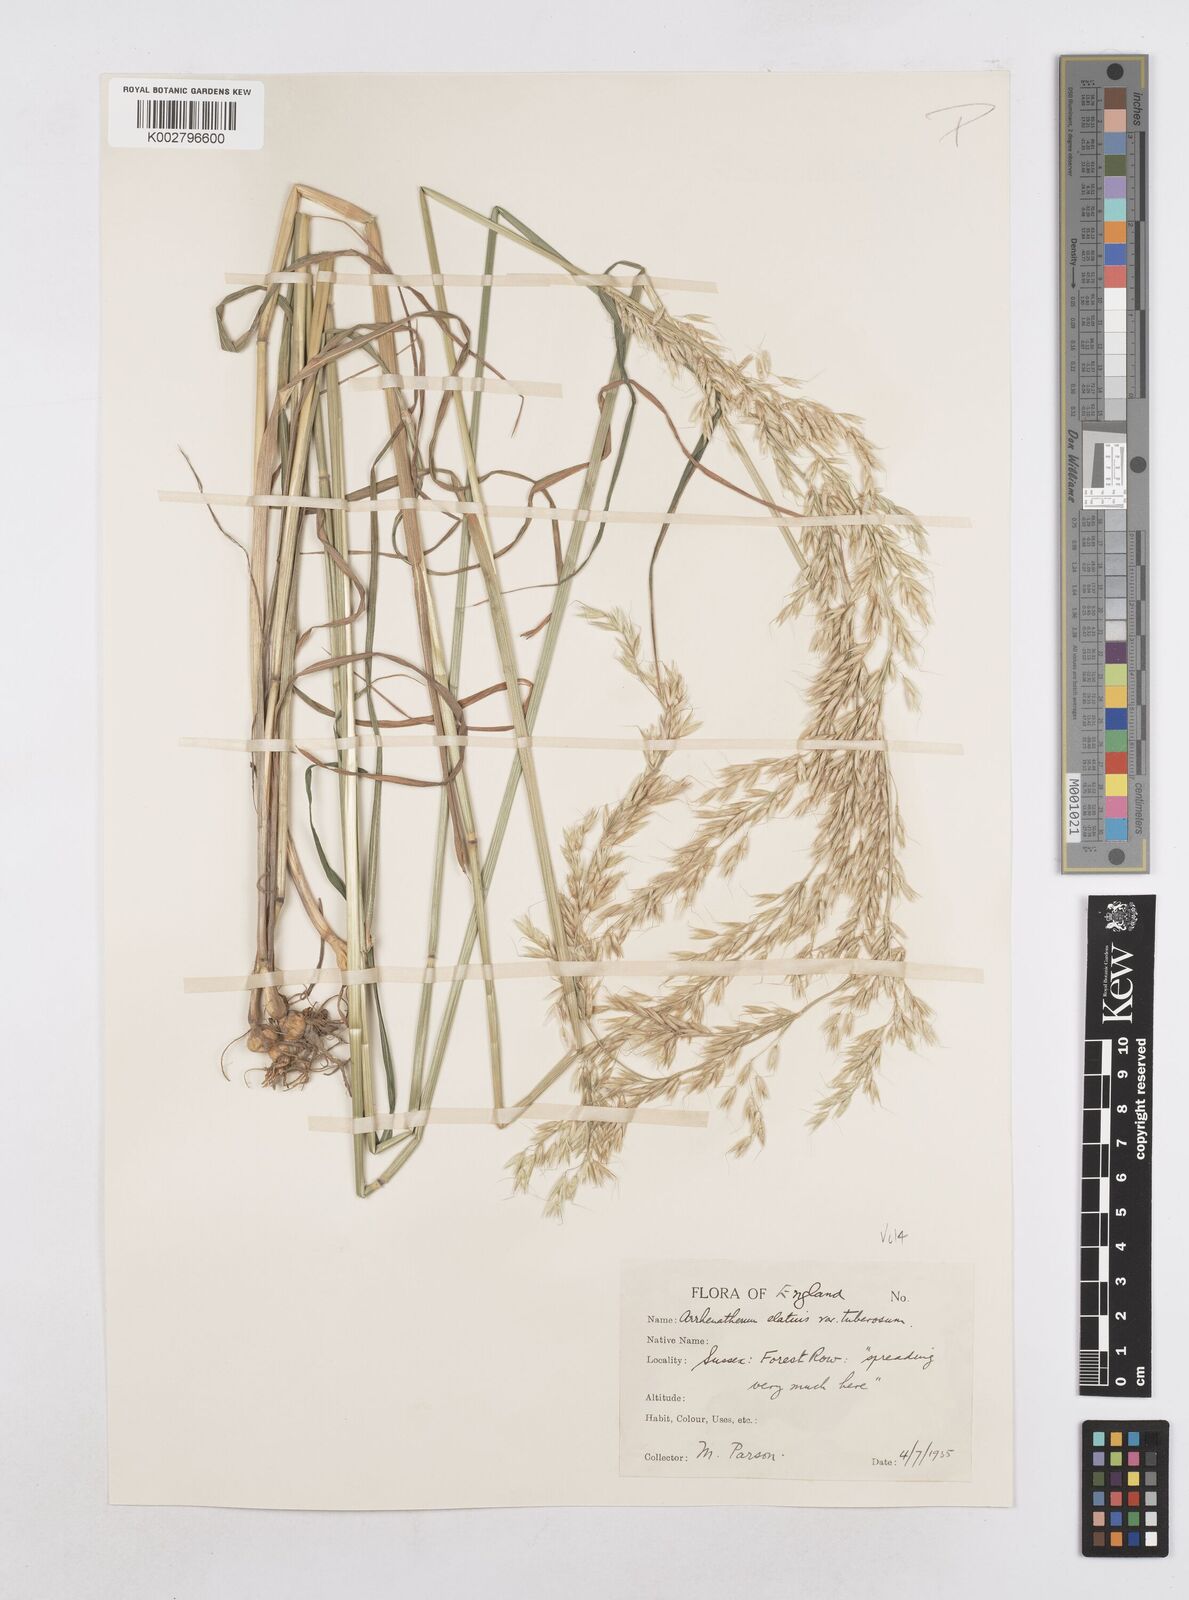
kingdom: Plantae
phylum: Tracheophyta
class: Liliopsida
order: Poales
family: Poaceae
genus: Arrhenatherum
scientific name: Arrhenatherum elatius
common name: Tall oatgrass
